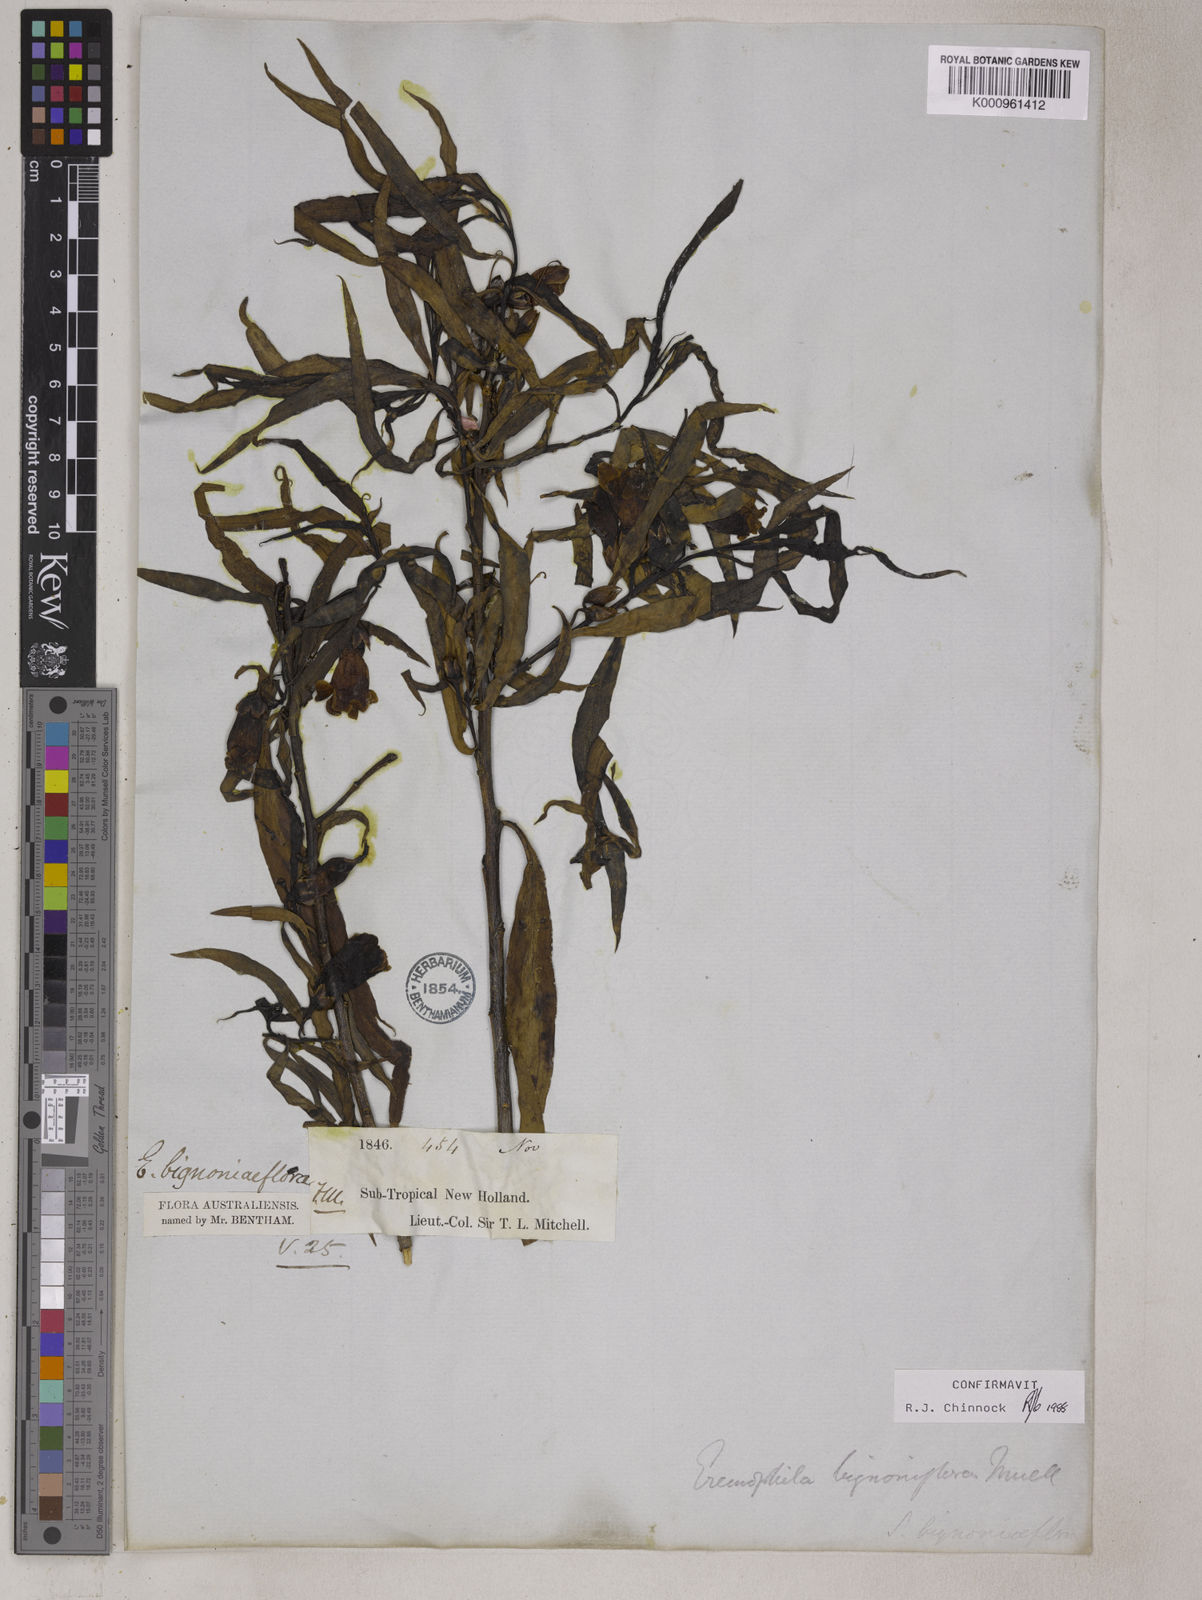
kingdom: Plantae
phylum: Tracheophyta
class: Magnoliopsida
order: Lamiales
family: Scrophulariaceae
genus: Eremophila
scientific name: Eremophila bignoniiflora
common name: Bignonia emu-bush
